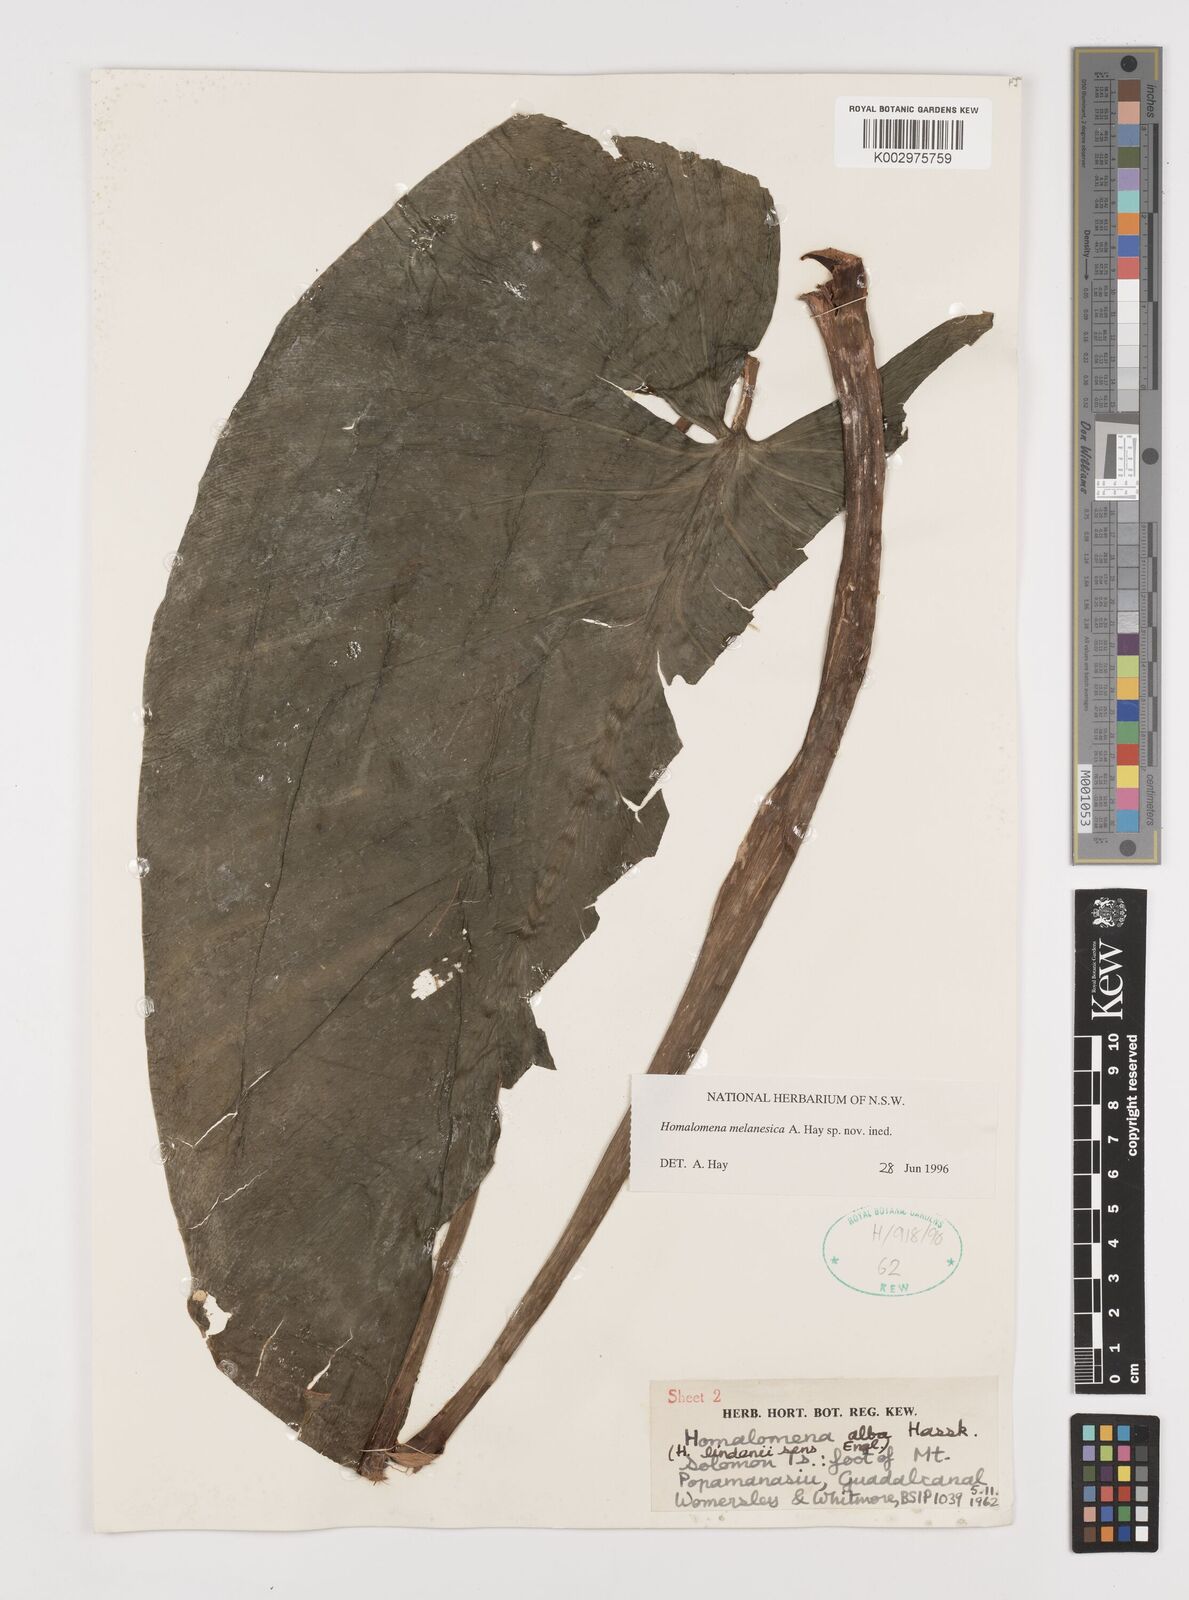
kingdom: Plantae
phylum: Tracheophyta
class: Liliopsida
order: Alismatales
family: Araceae
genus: Homalomena
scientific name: Homalomena melanesica
